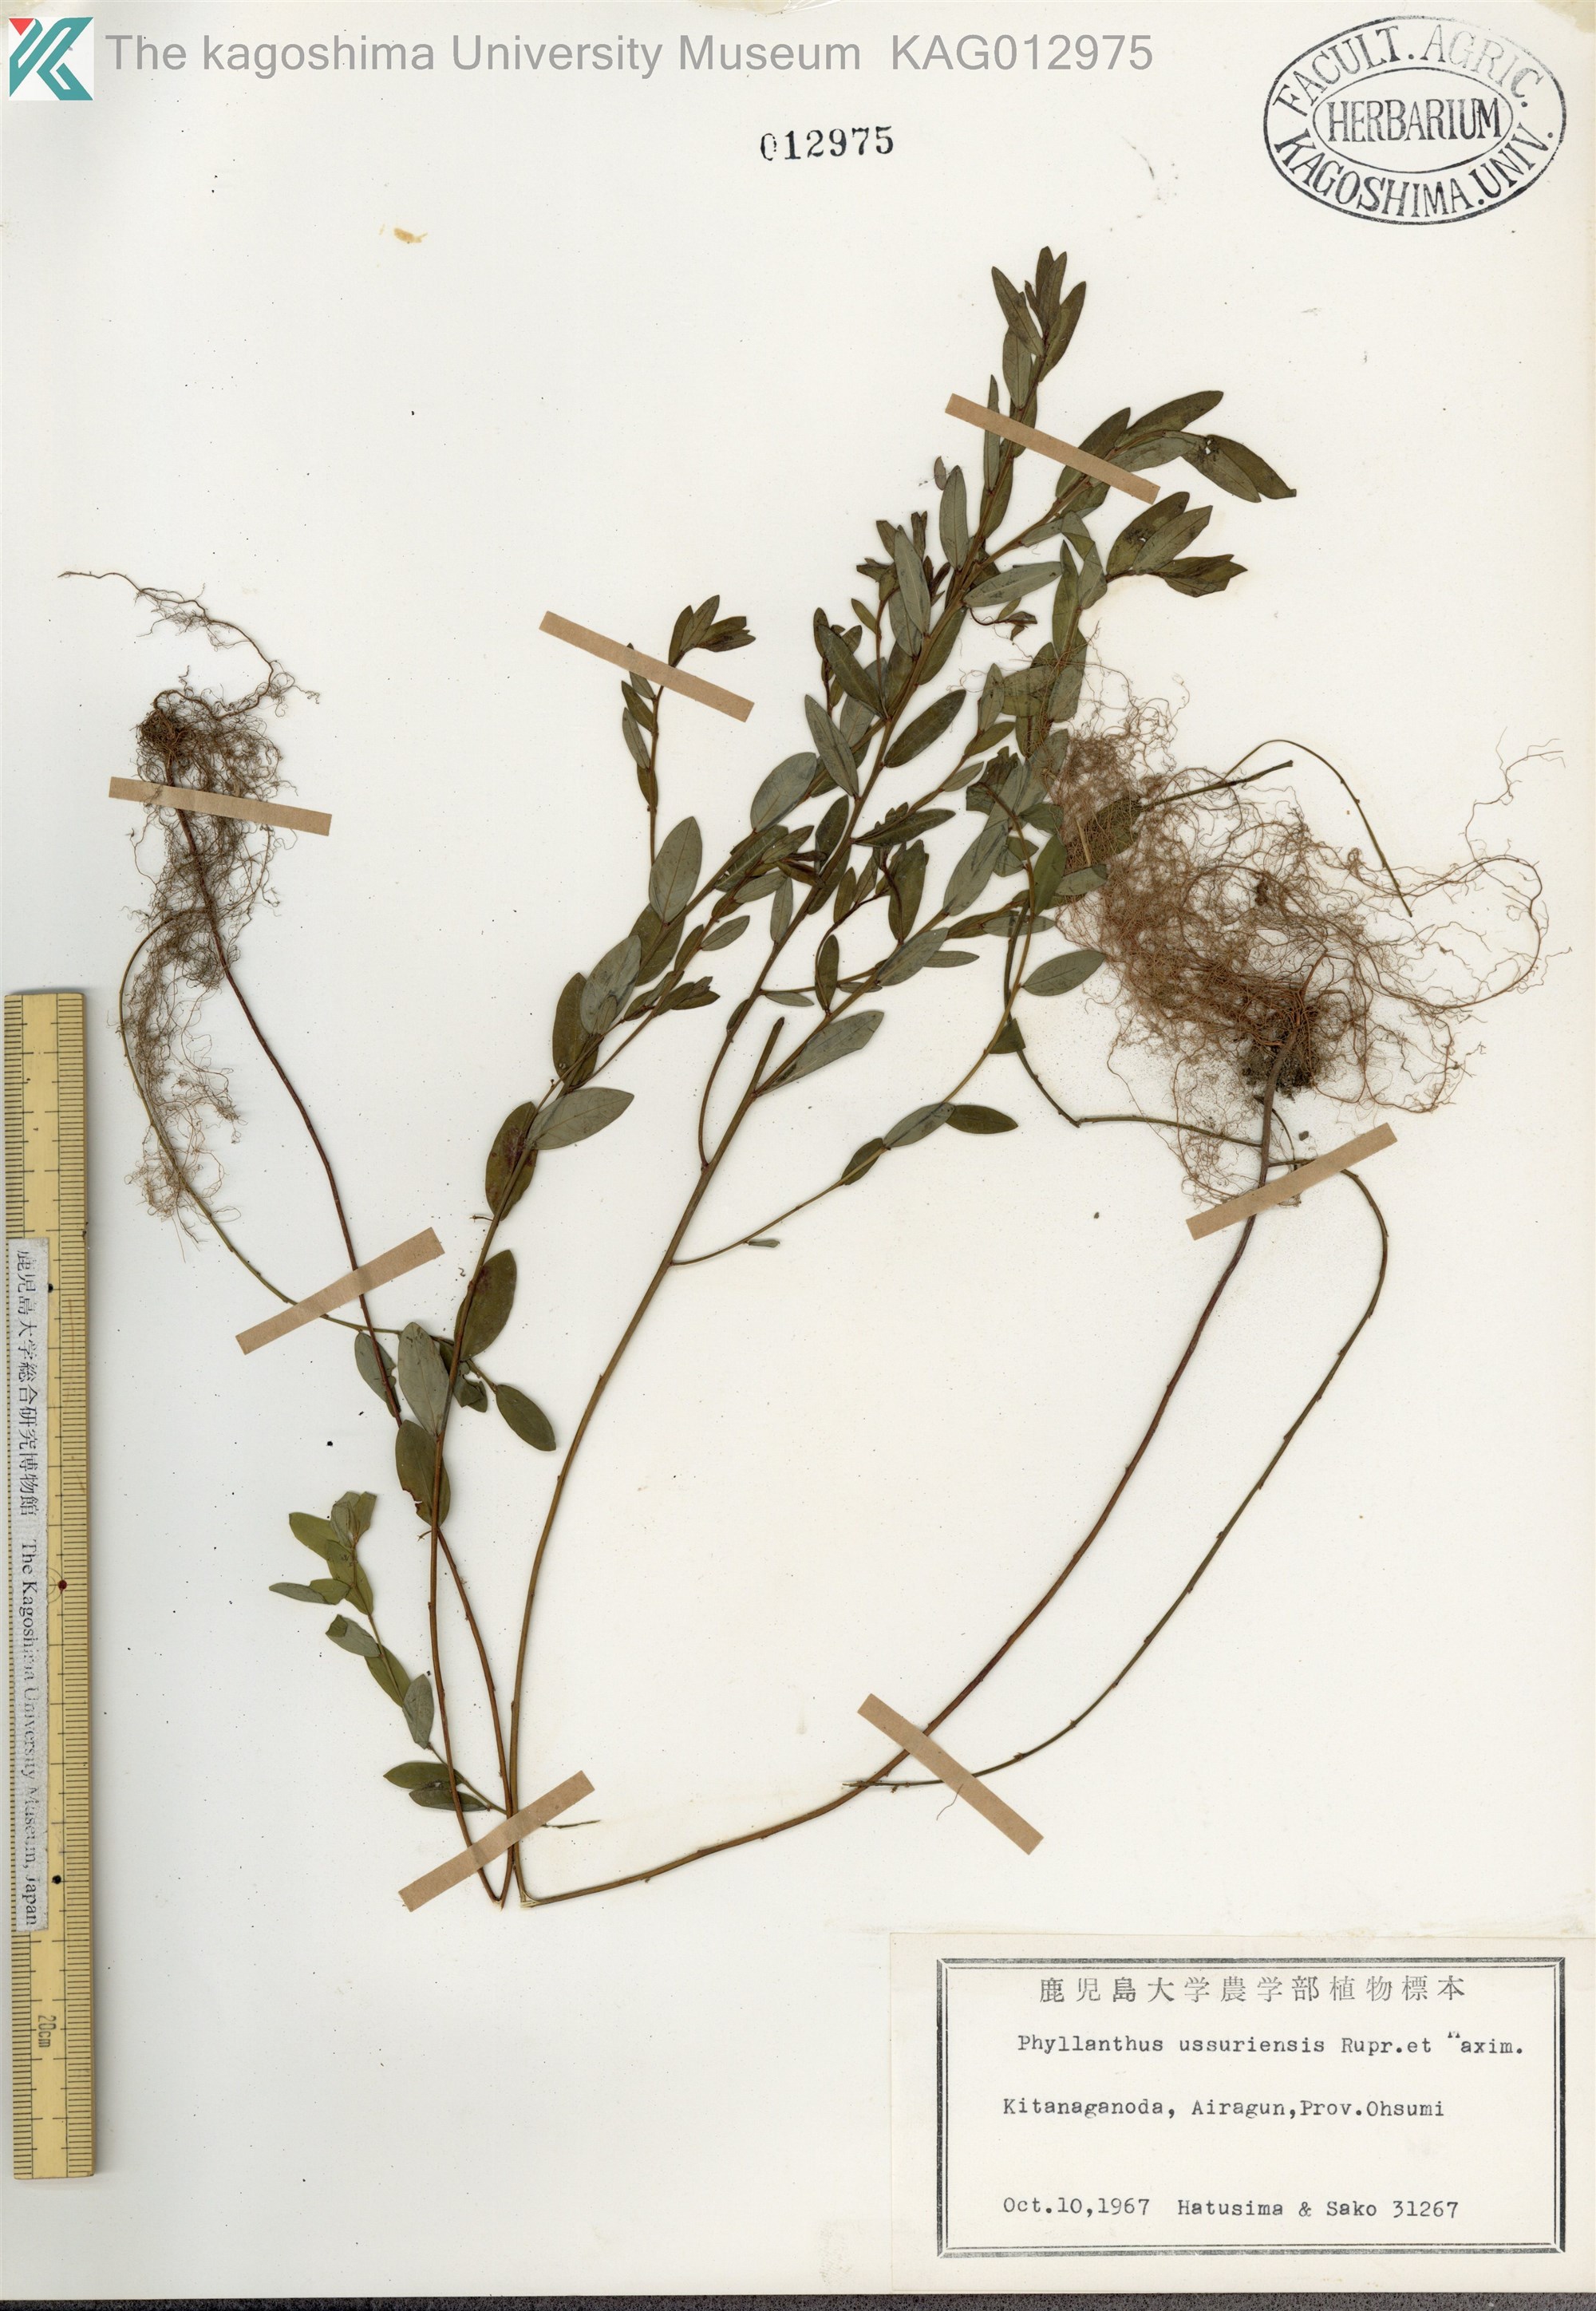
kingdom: Plantae
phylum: Tracheophyta
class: Magnoliopsida
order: Malpighiales
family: Phyllanthaceae
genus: Phyllanthus
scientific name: Phyllanthus ussuriensis
